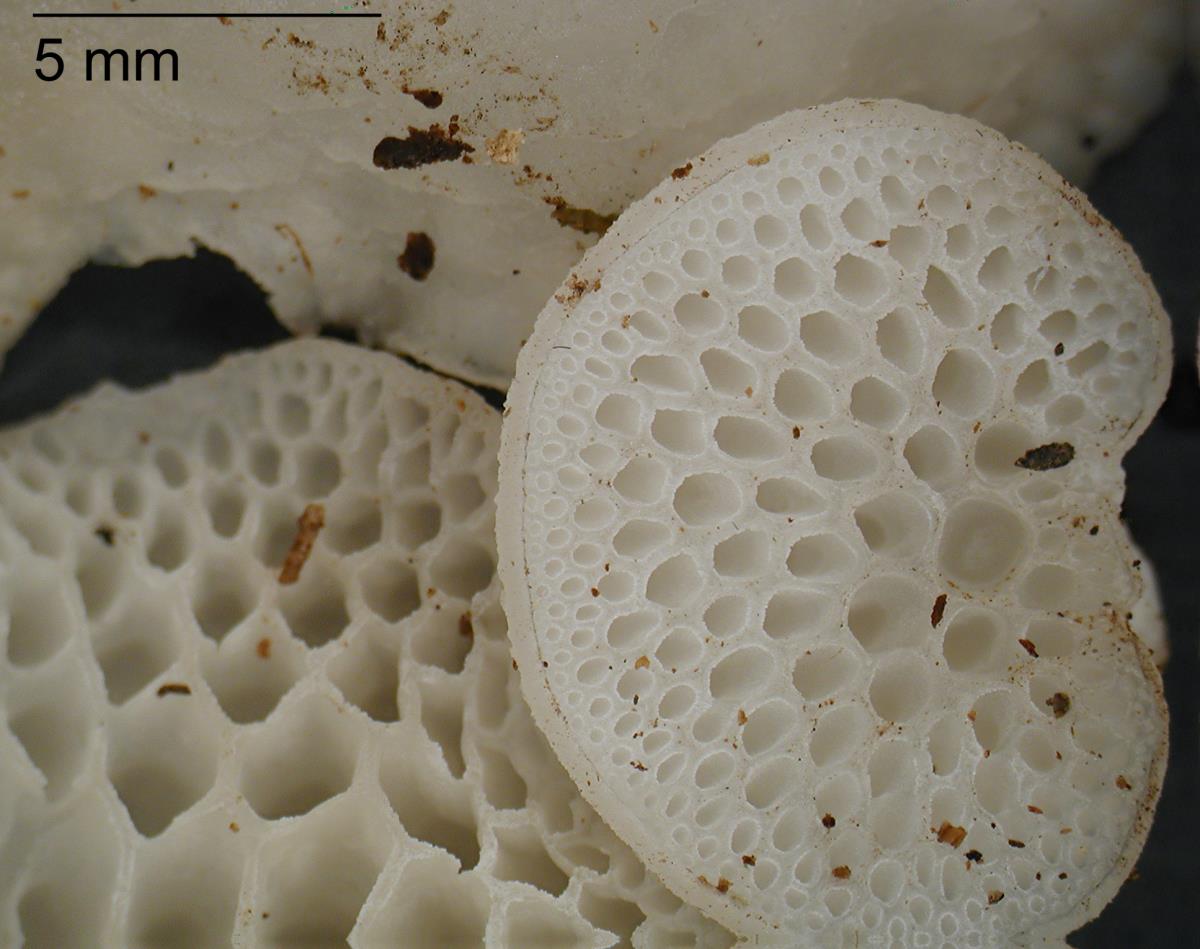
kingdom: Fungi
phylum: Basidiomycota
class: Agaricomycetes
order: Agaricales
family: Mycenaceae
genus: Favolaschia
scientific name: Favolaschia pustulosa
